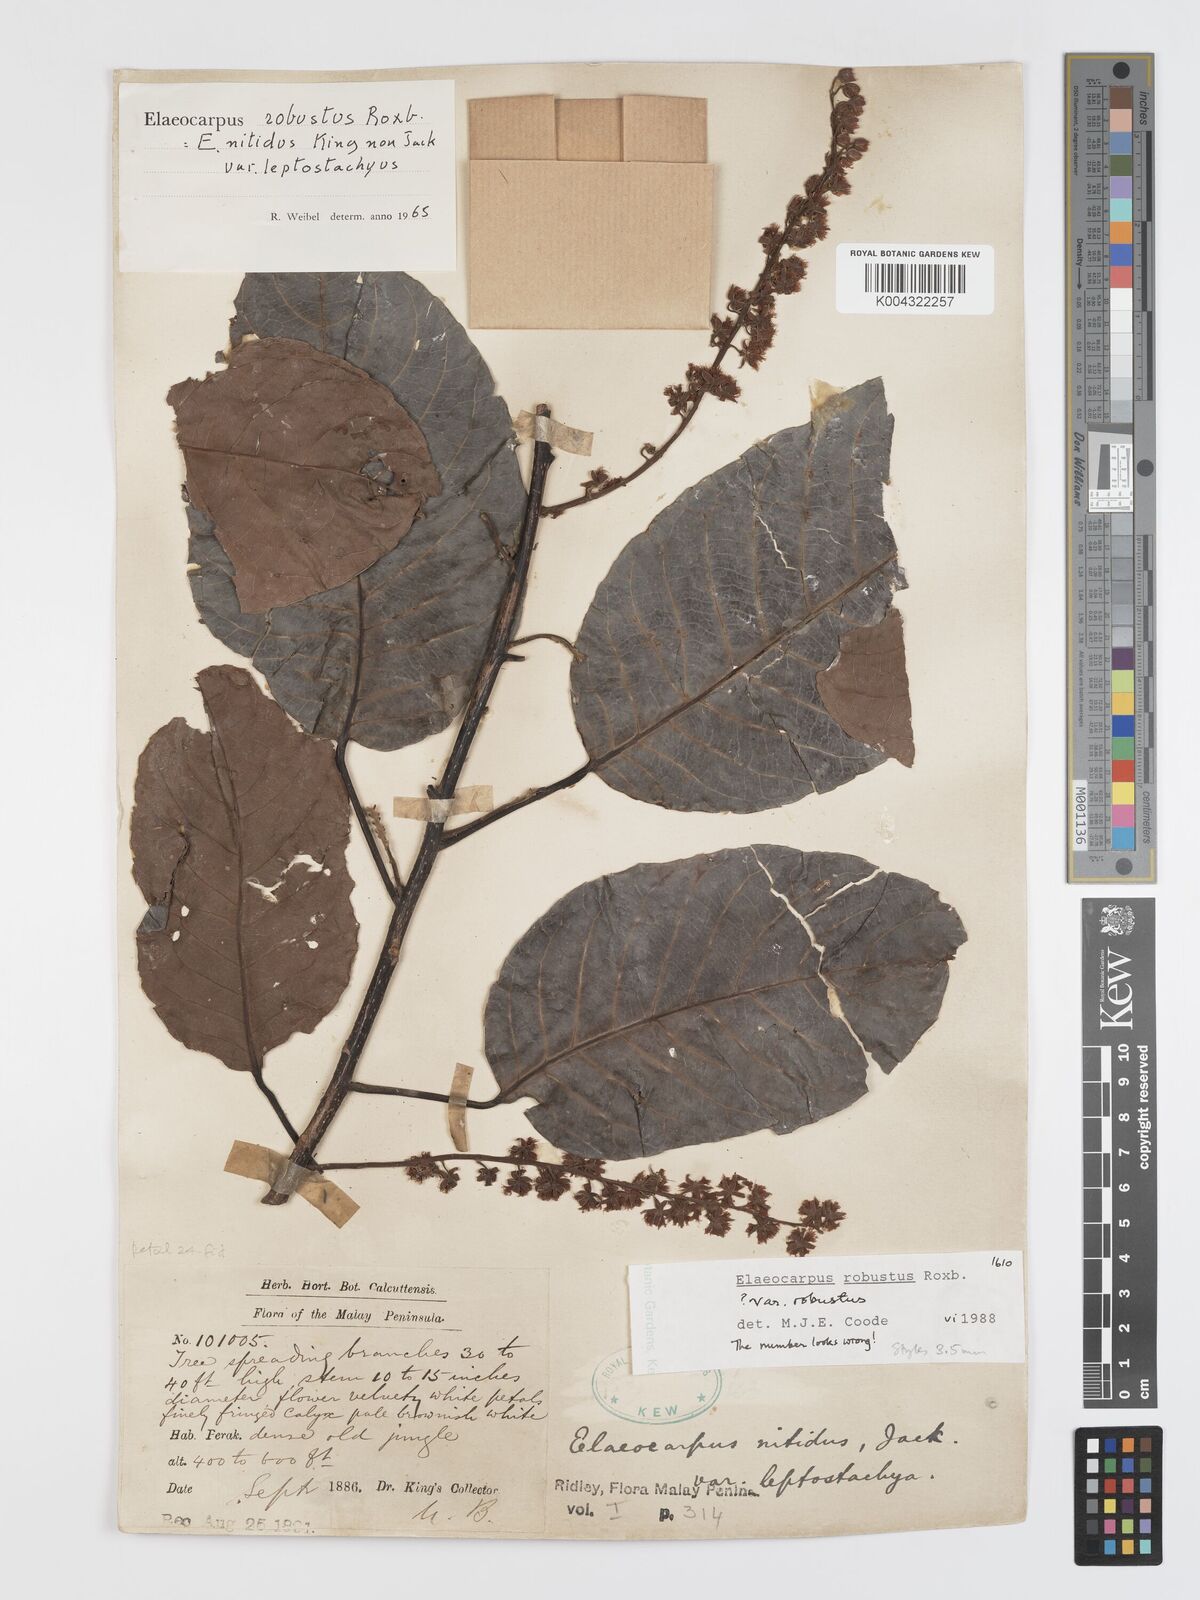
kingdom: Plantae
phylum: Tracheophyta
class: Magnoliopsida
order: Oxalidales
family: Elaeocarpaceae
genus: Elaeocarpus
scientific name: Elaeocarpus robustus
